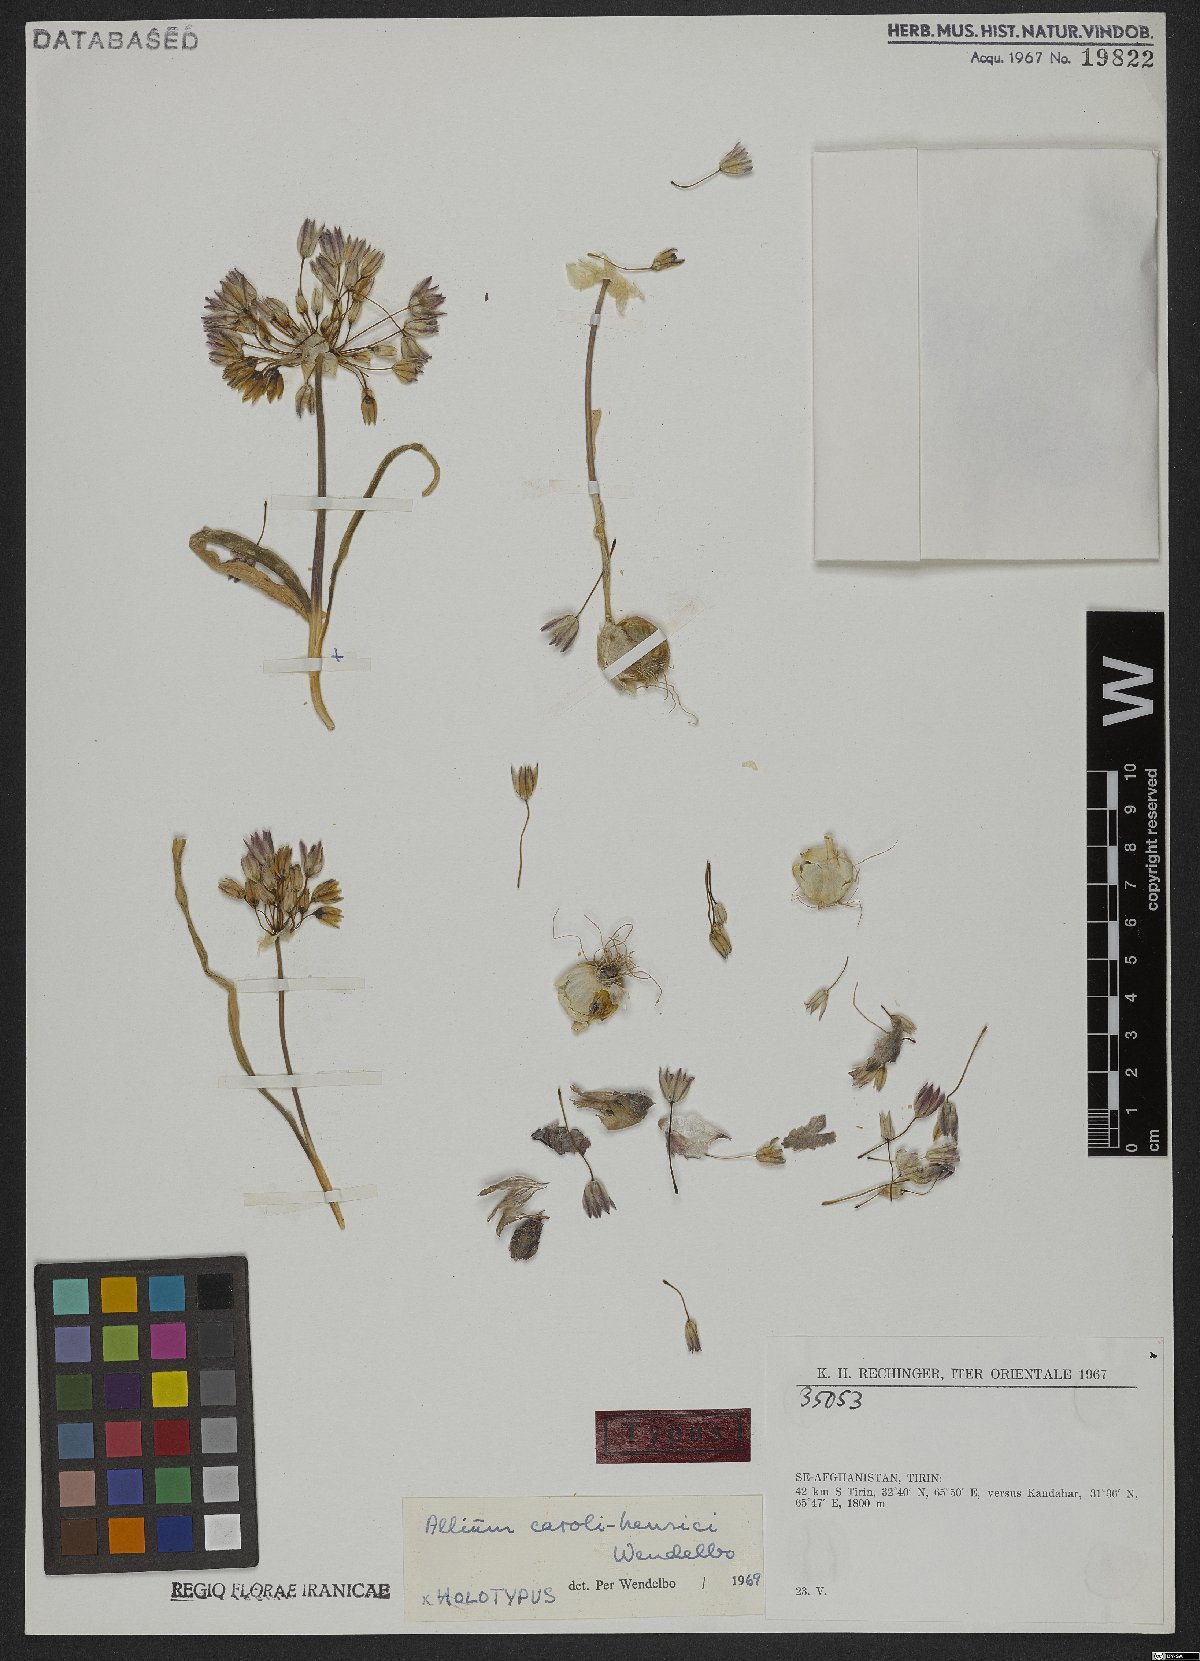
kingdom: Plantae
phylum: Tracheophyta
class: Liliopsida
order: Asparagales
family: Amaryllidaceae
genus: Allium
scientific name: Allium caroli-henrici
